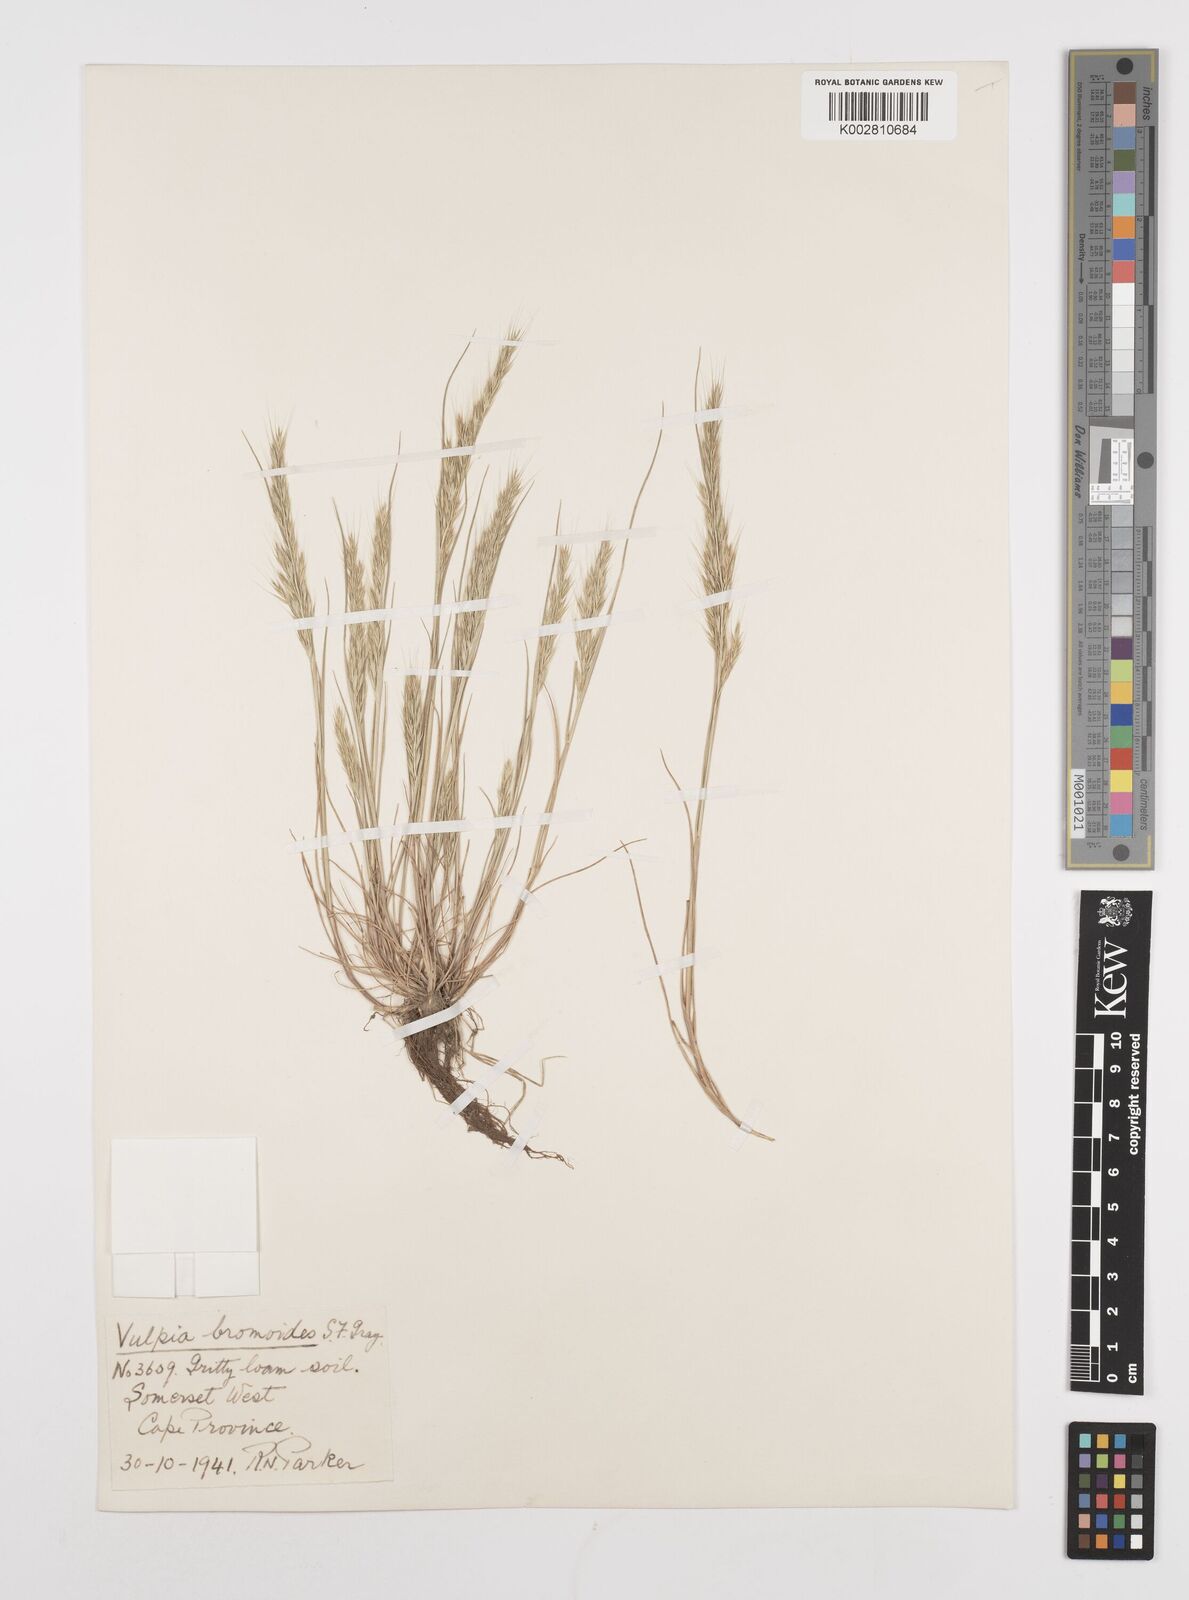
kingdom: Plantae
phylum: Tracheophyta
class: Liliopsida
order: Poales
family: Poaceae
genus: Festuca
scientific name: Festuca bromoides
